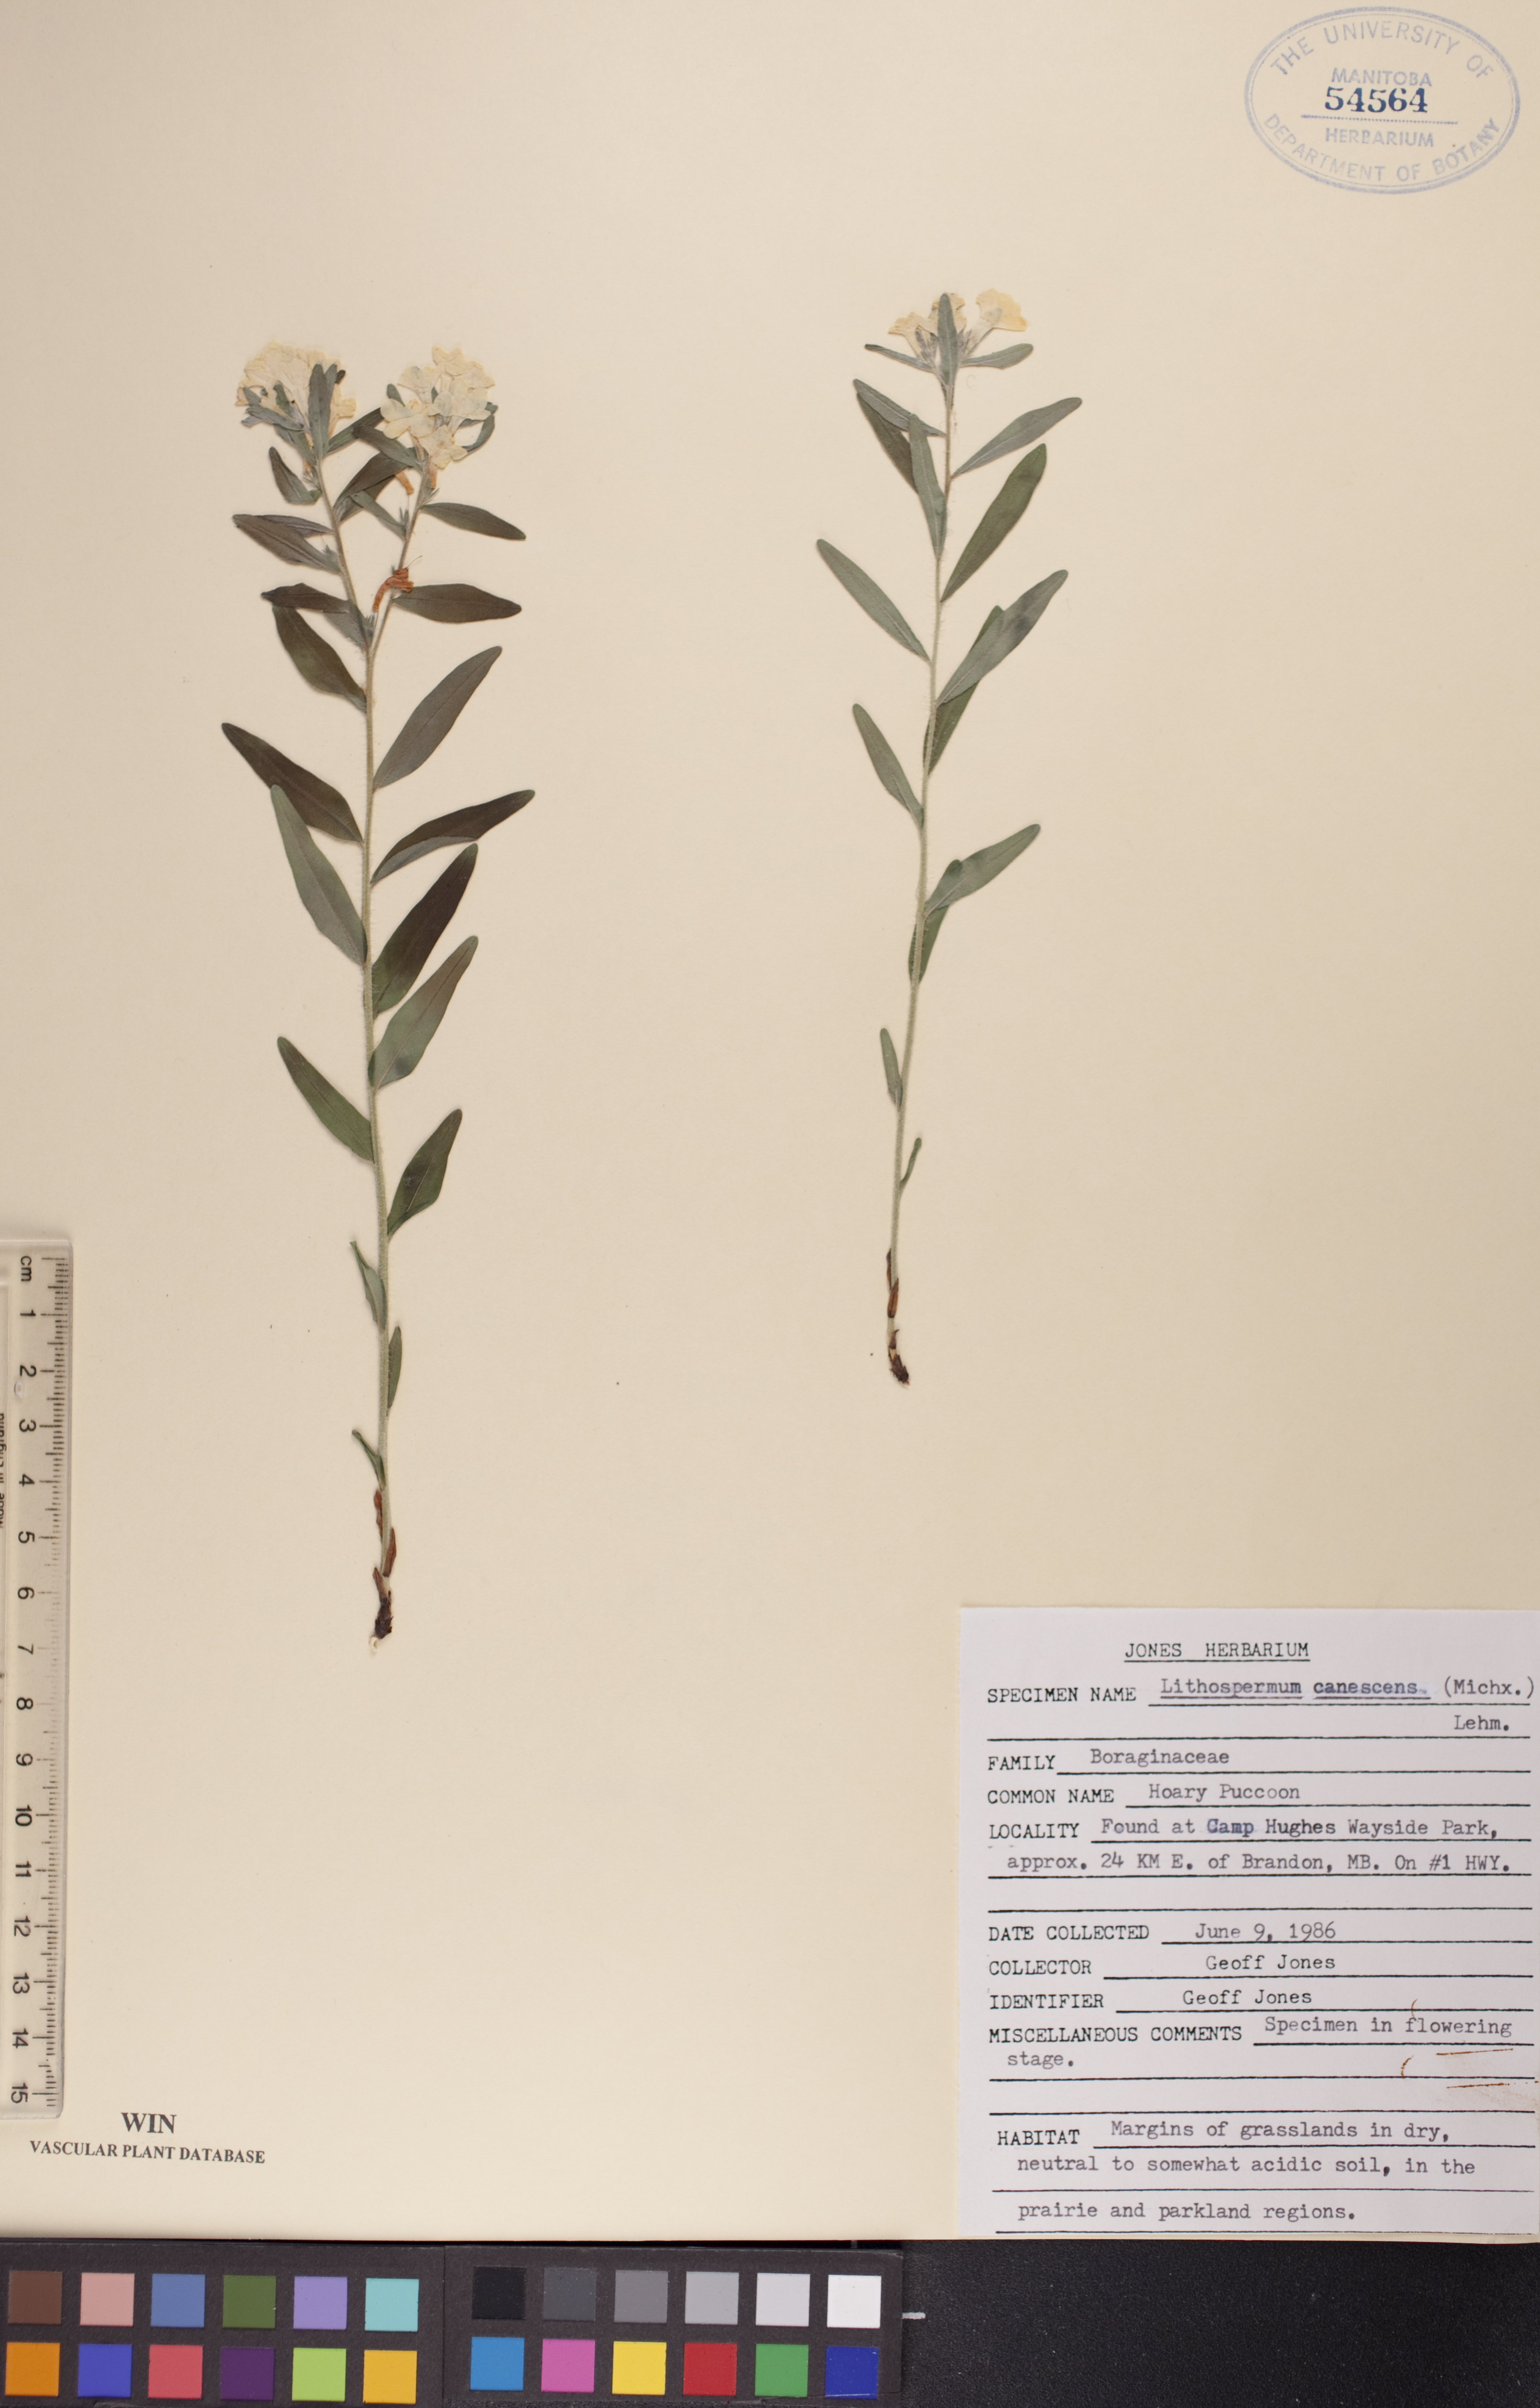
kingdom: Plantae
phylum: Tracheophyta
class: Magnoliopsida
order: Boraginales
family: Boraginaceae
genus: Lithospermum
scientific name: Lithospermum canescens
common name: Hoary puccoon
